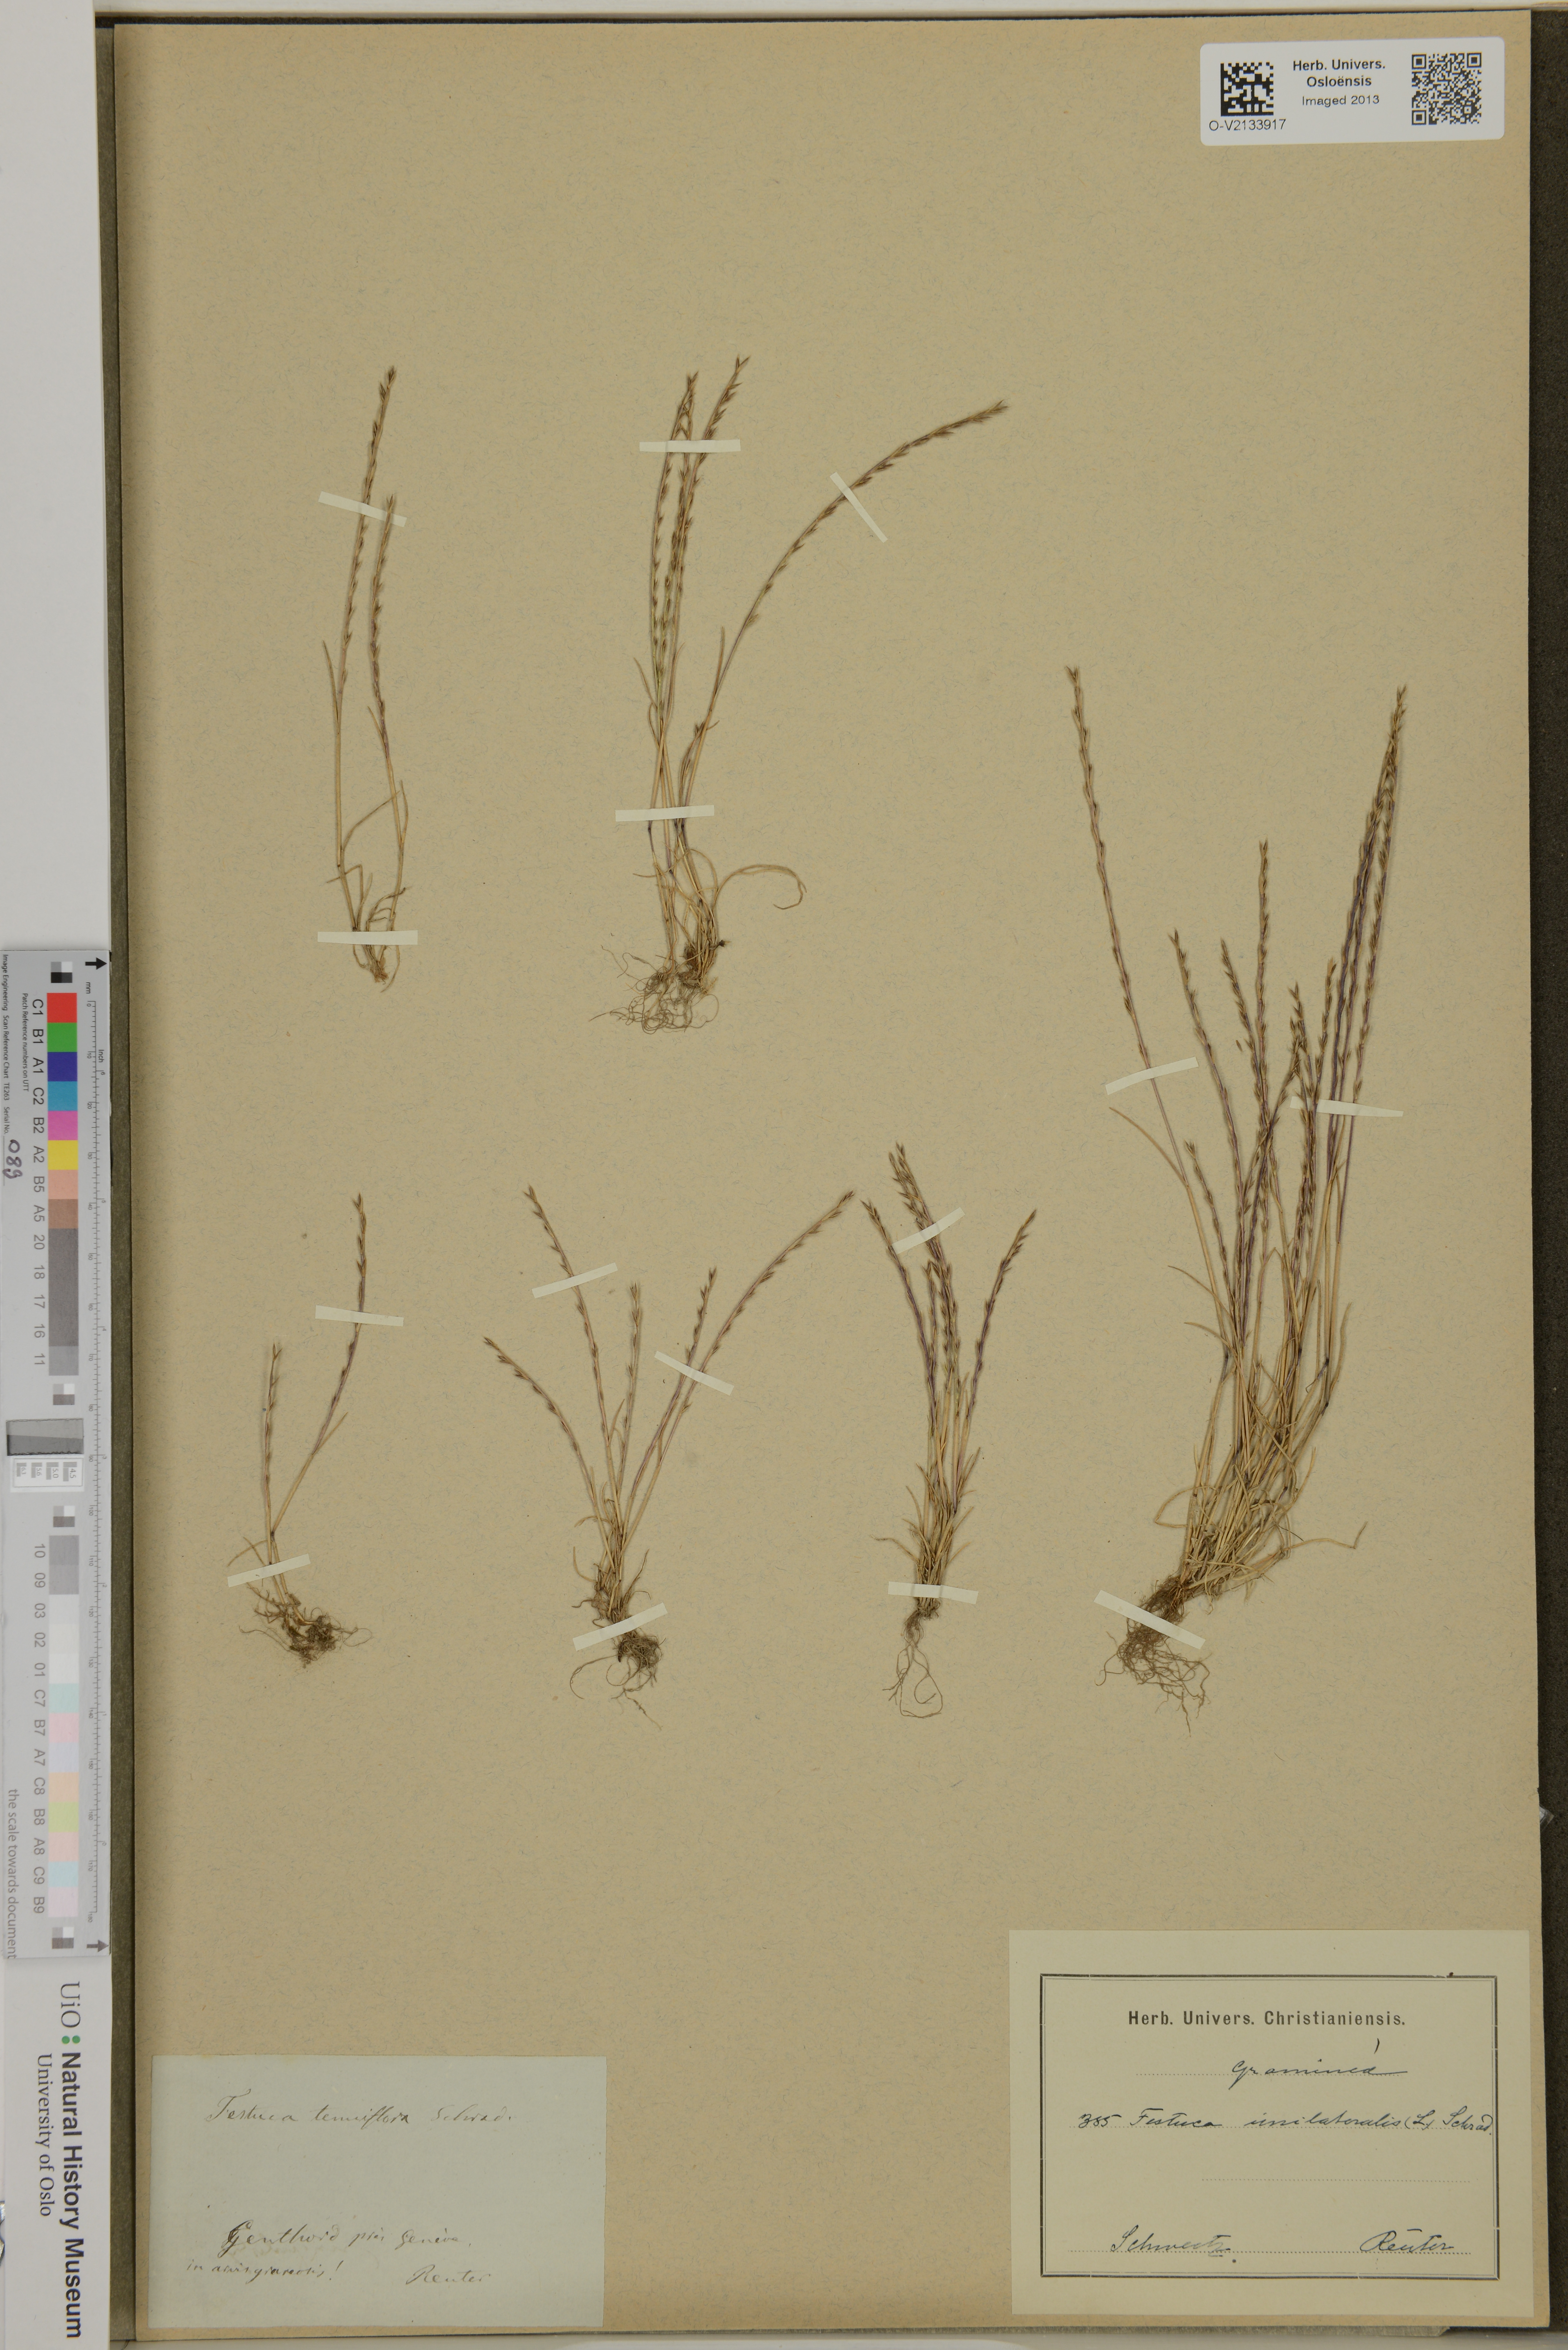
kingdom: Plantae
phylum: Tracheophyta
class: Liliopsida
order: Poales
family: Poaceae
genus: Festuca
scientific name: Festuca maritima
